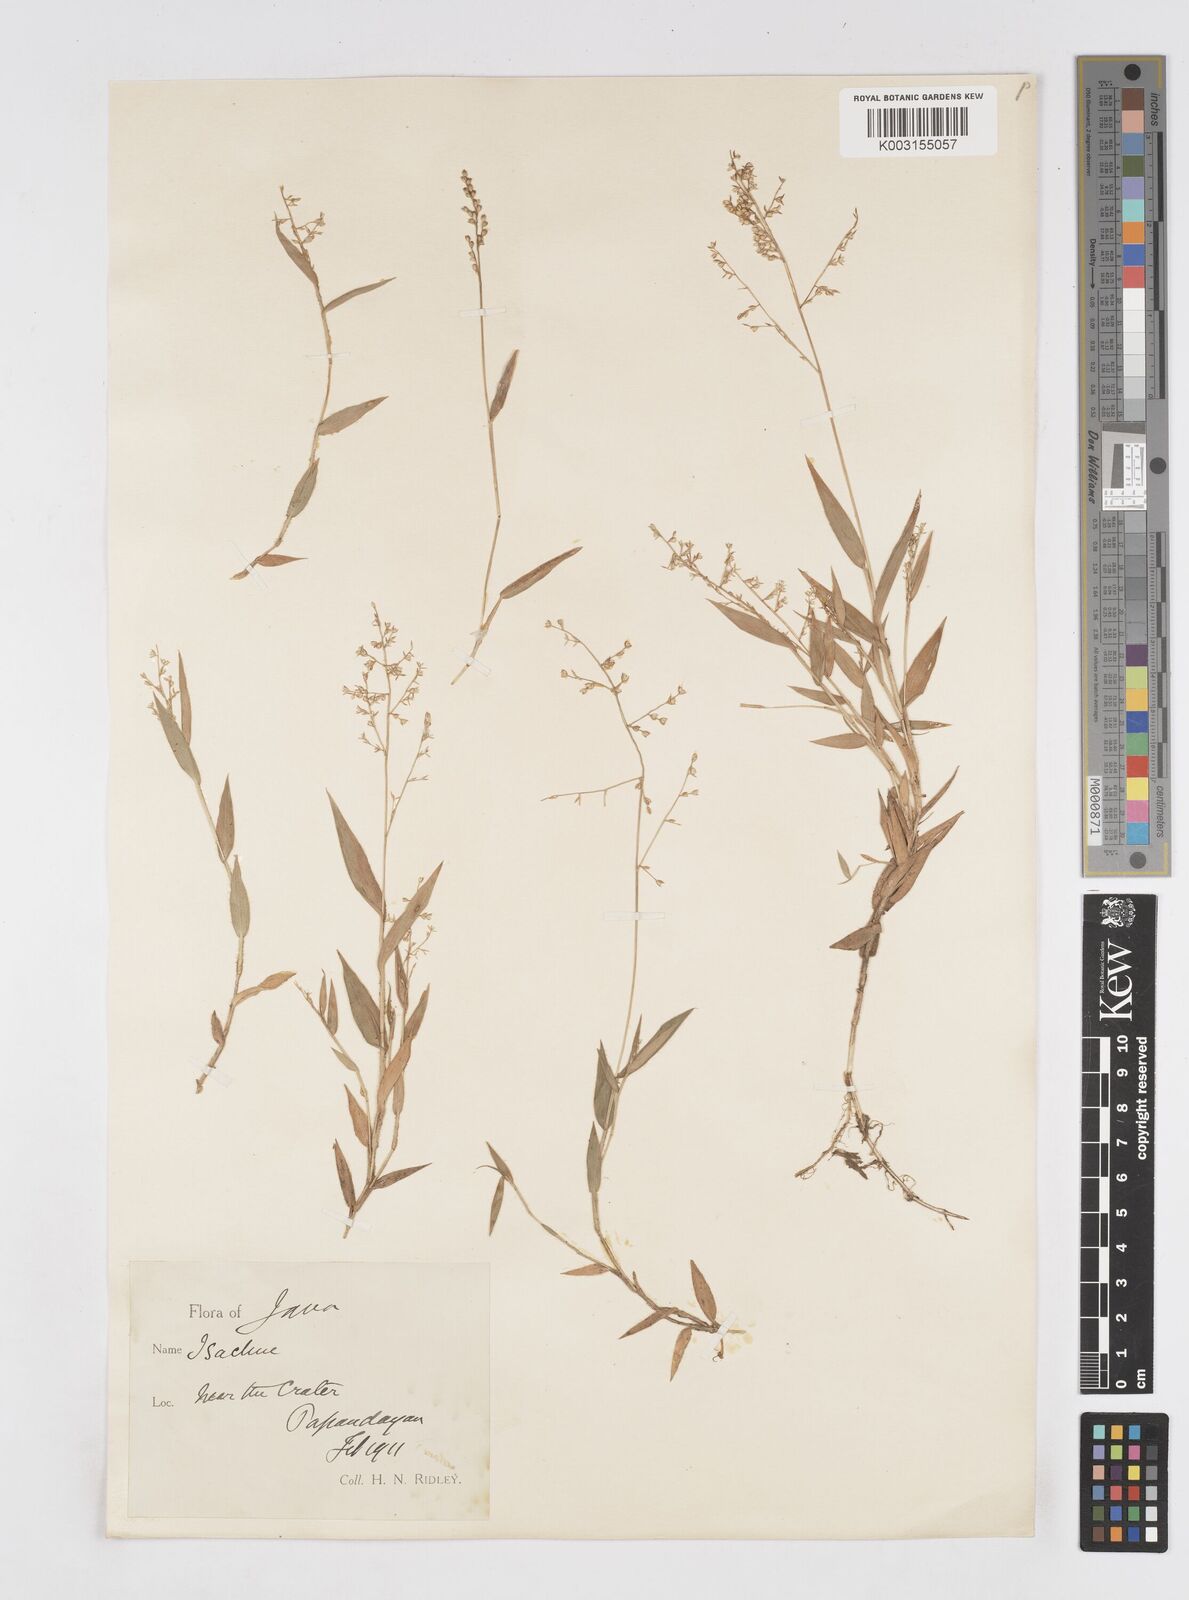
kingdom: Plantae
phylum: Tracheophyta
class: Liliopsida
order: Poales
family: Poaceae
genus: Isachne
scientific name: Isachne pangerangensis
